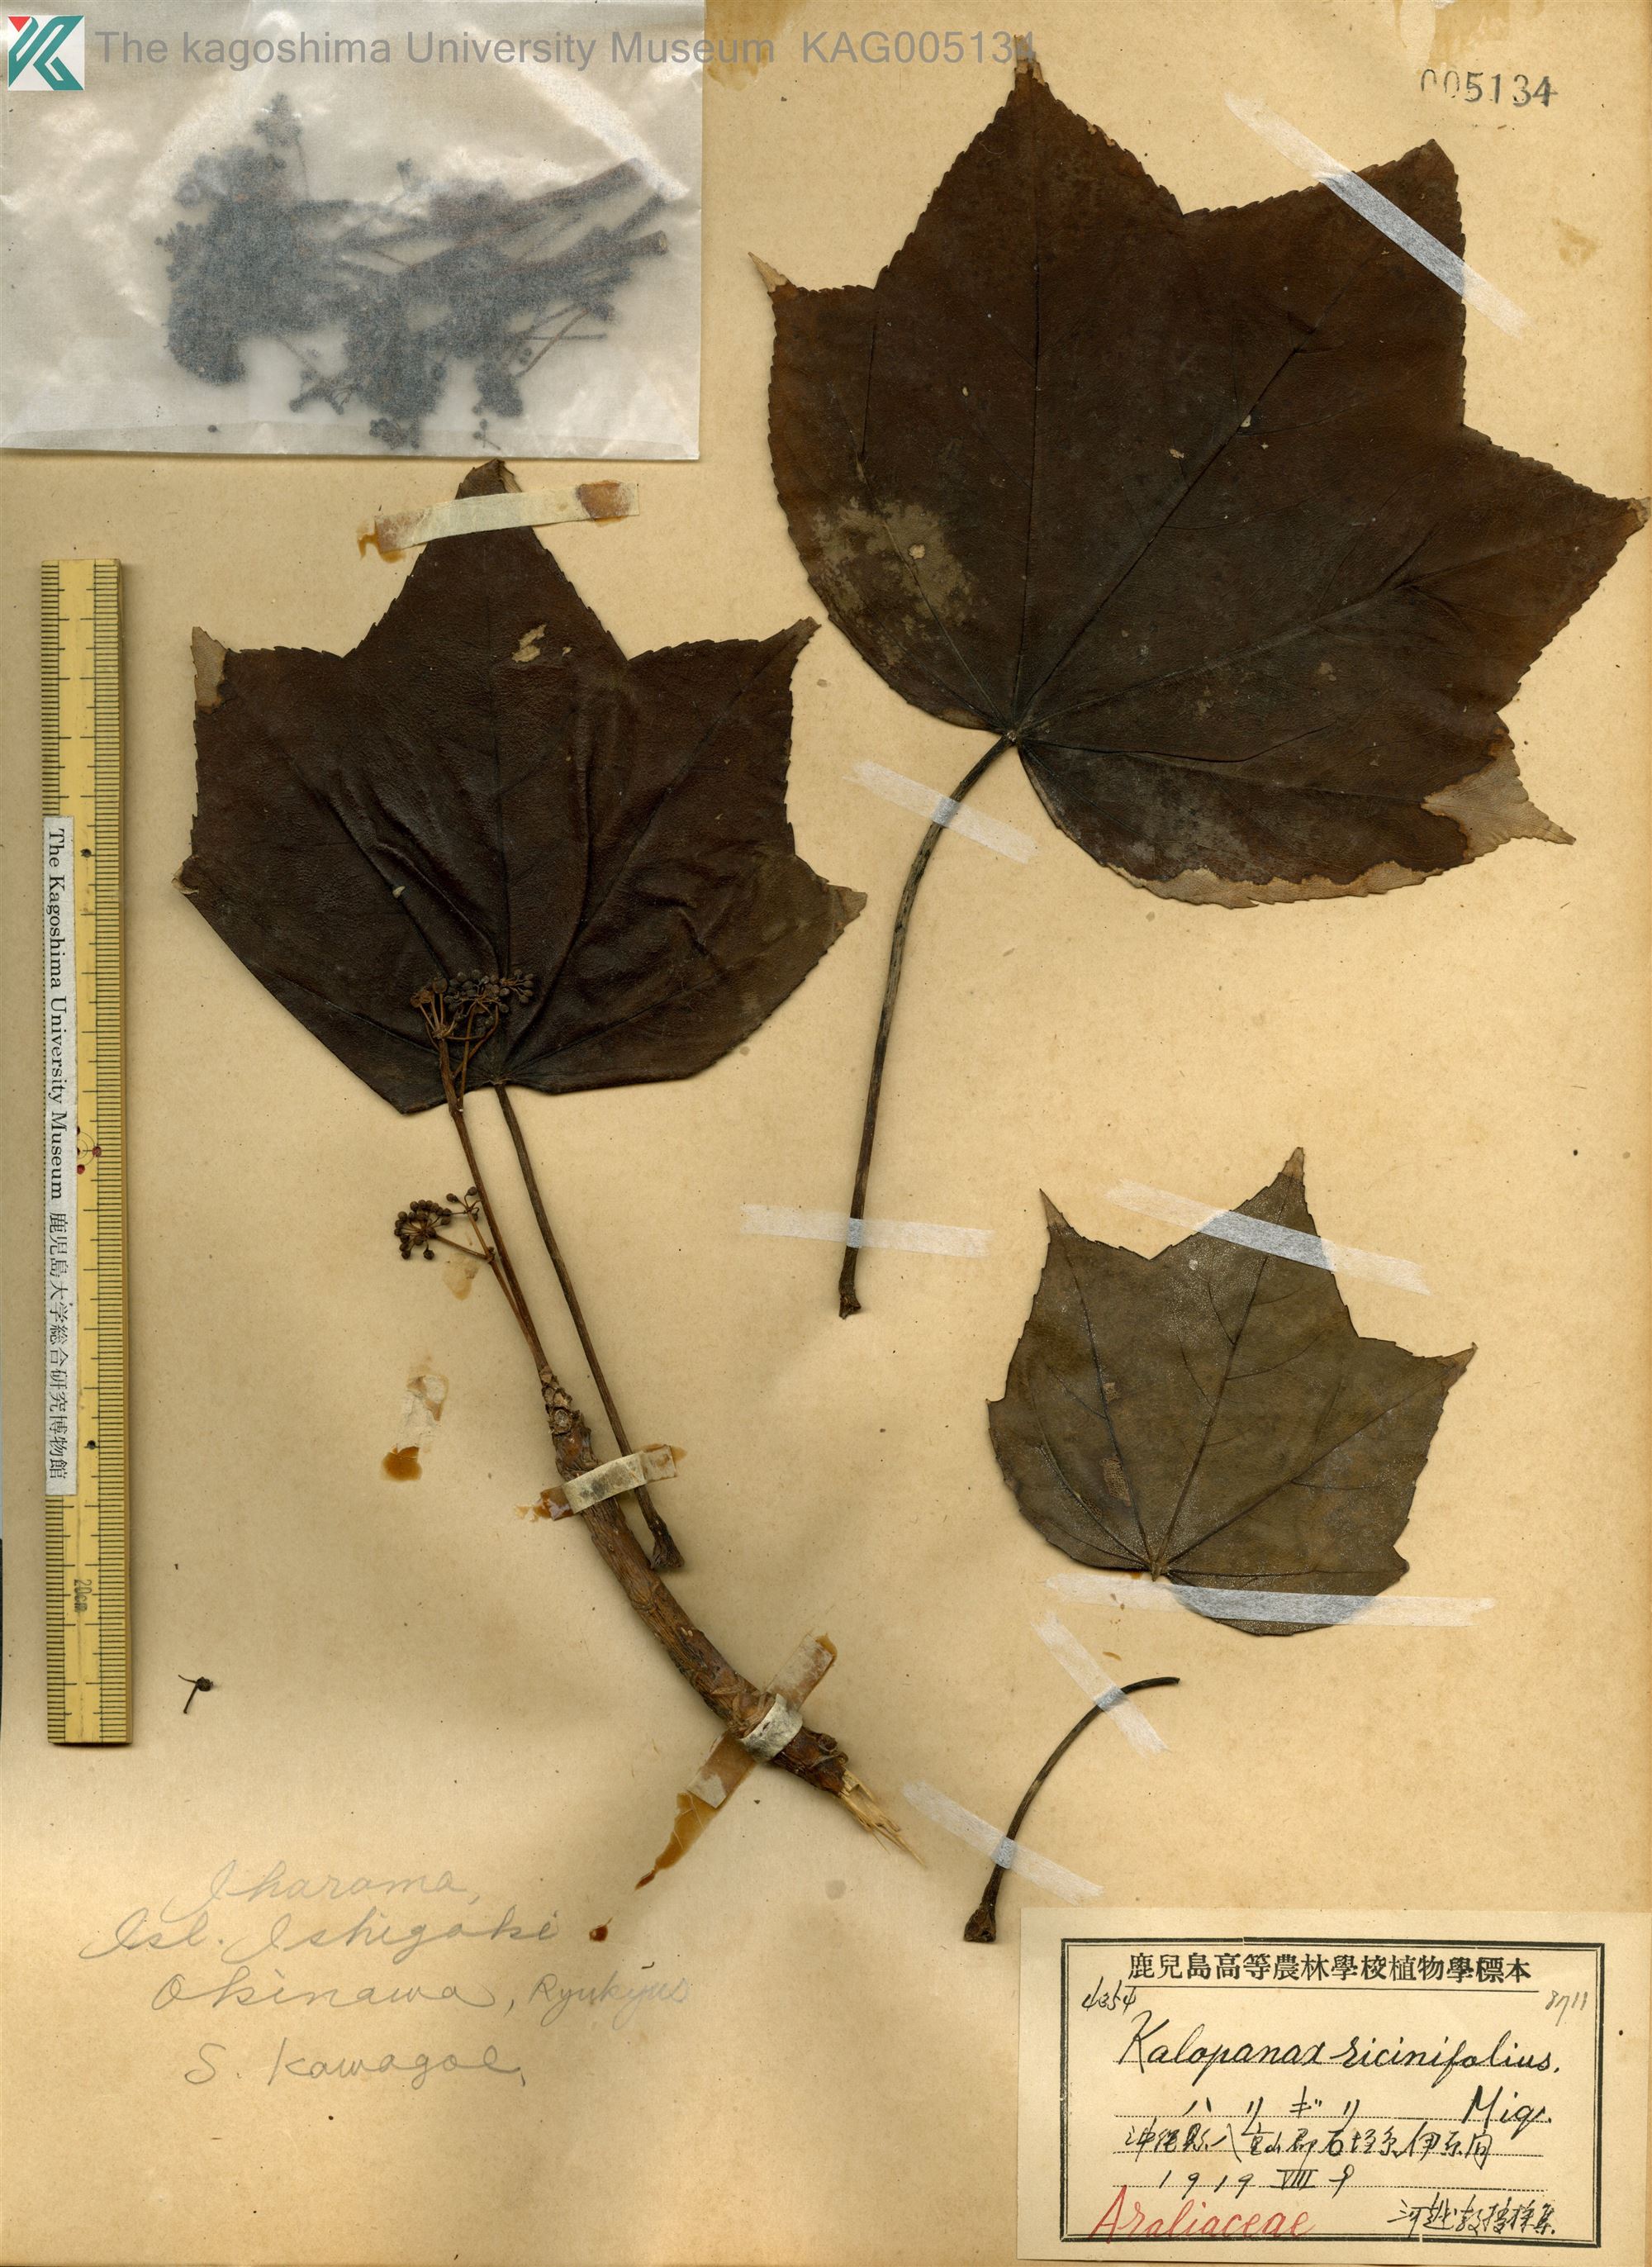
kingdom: Plantae
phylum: Tracheophyta
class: Magnoliopsida
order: Apiales
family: Araliaceae
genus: Kalopanax
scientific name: Kalopanax septemlobus
